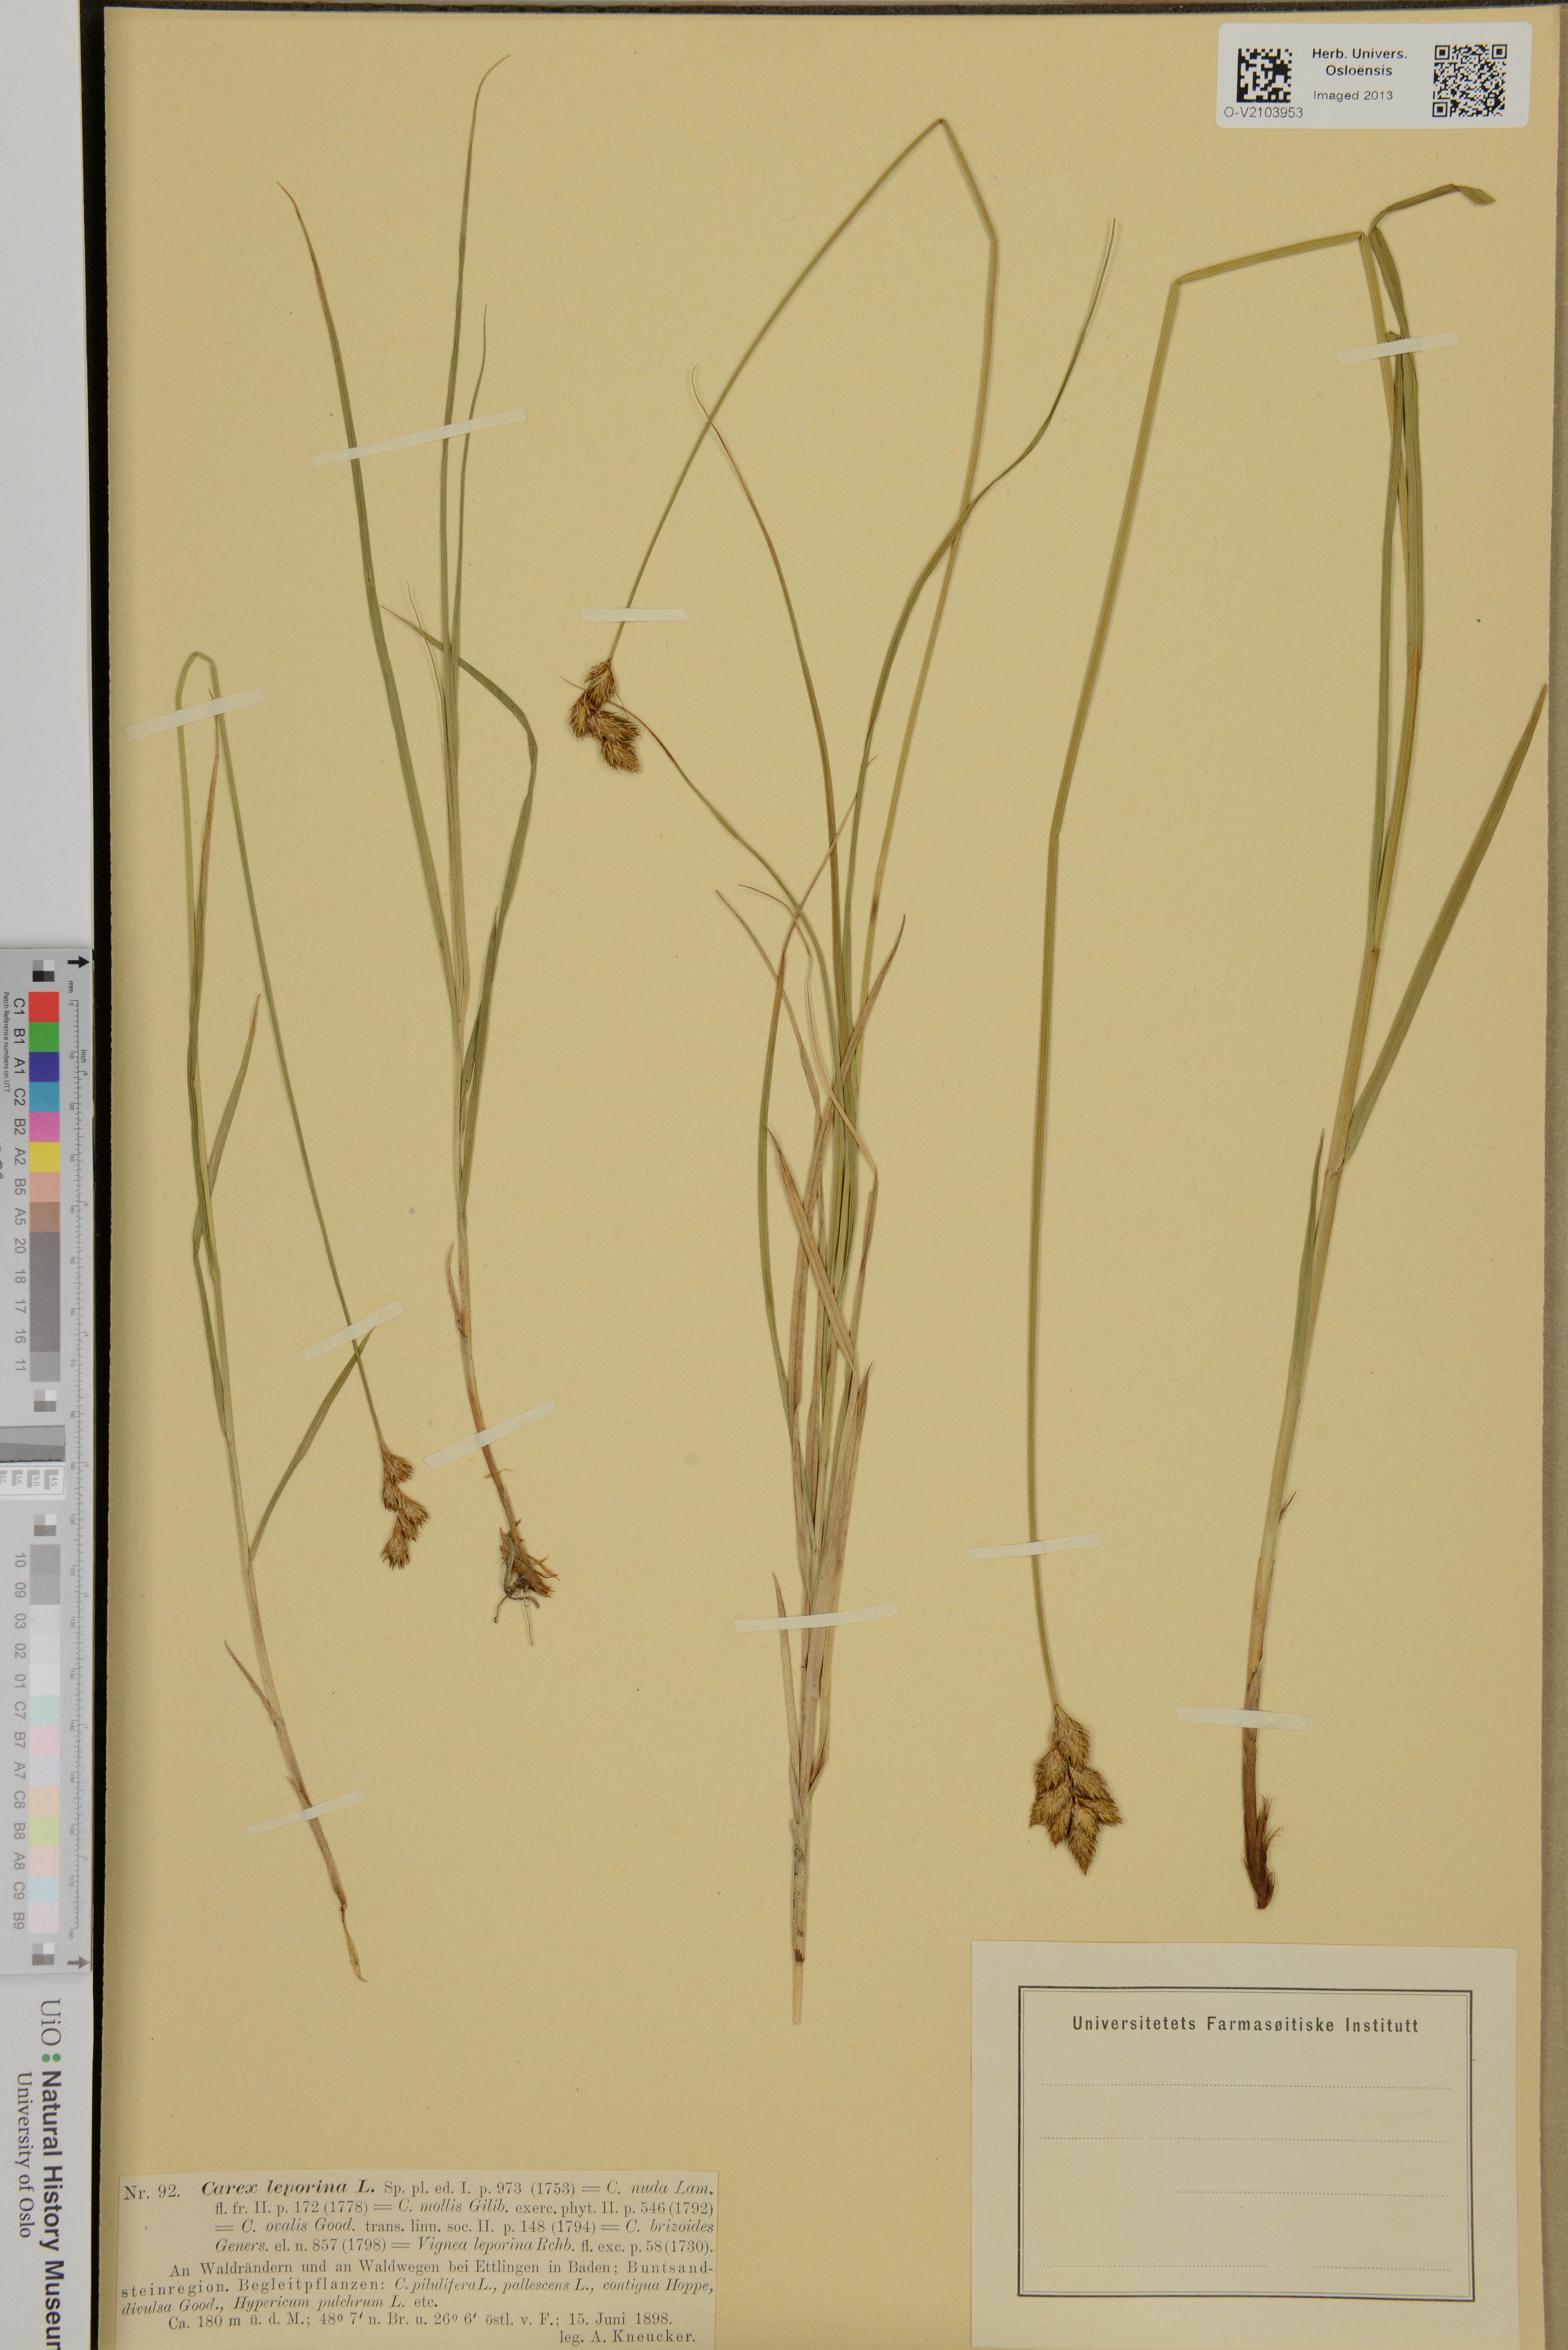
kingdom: Plantae
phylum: Tracheophyta
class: Liliopsida
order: Poales
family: Cyperaceae
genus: Carex
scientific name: Carex leporina
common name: Oval sedge
